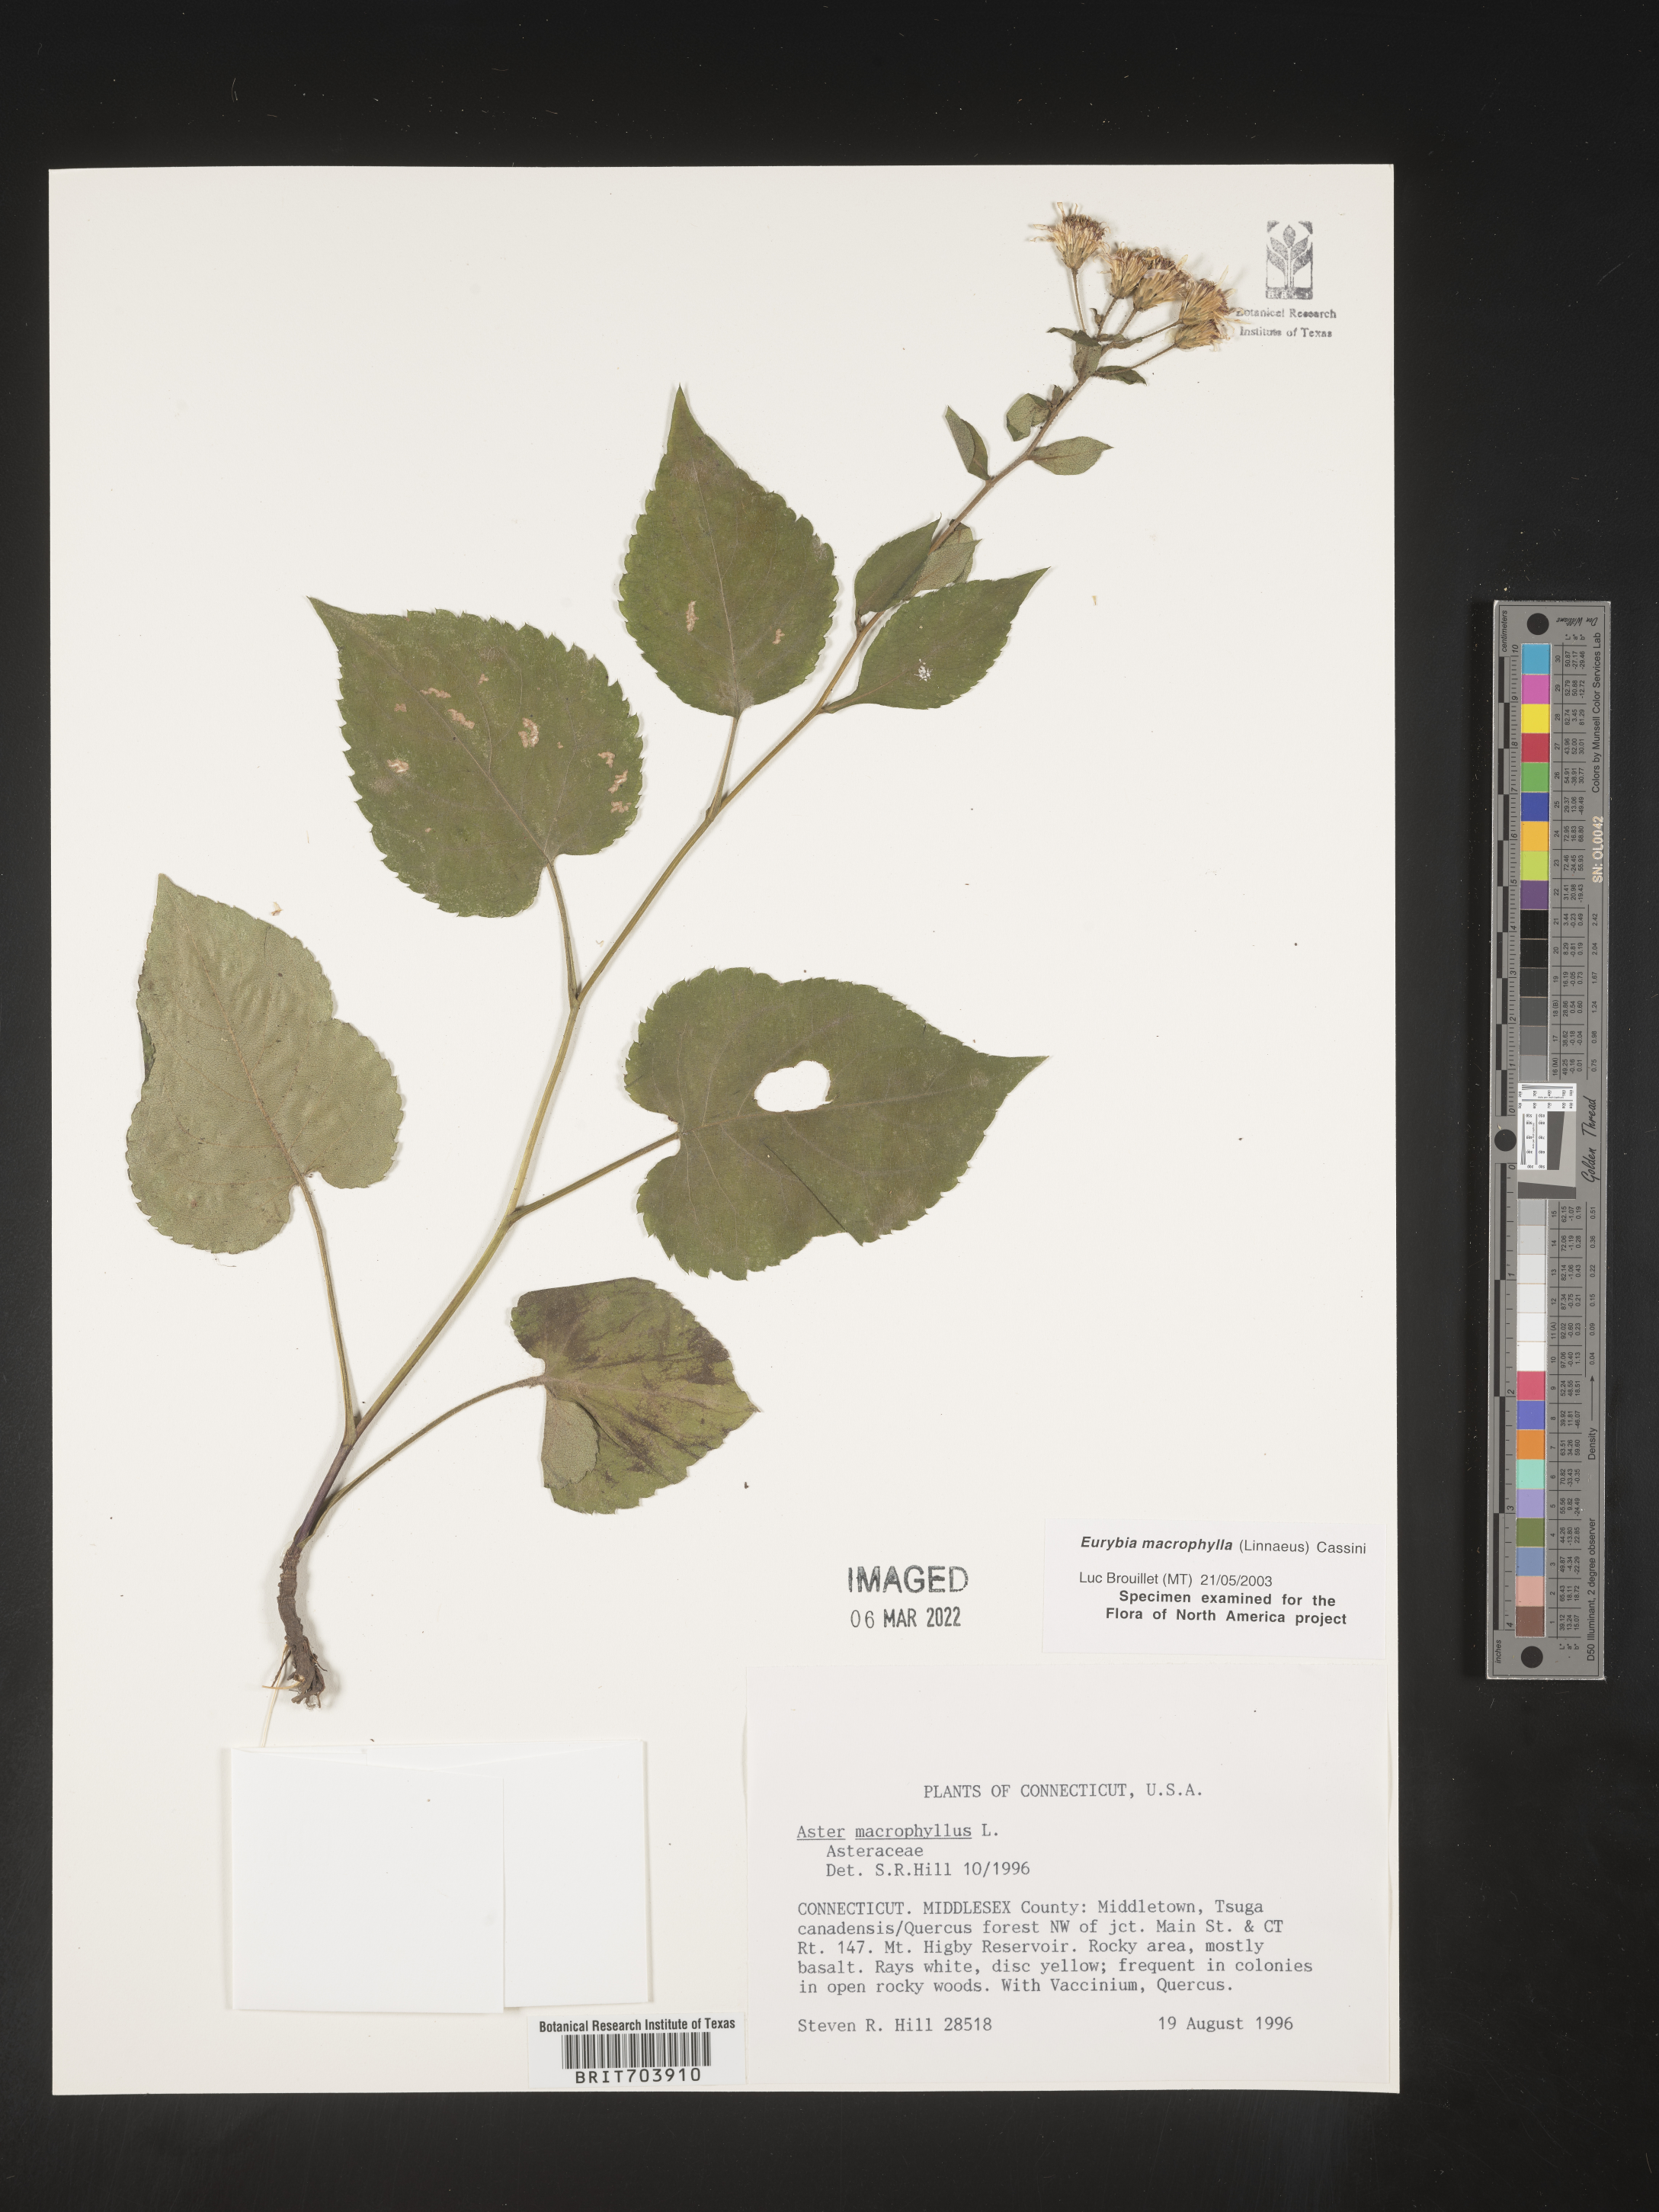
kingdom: Plantae
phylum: Tracheophyta
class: Magnoliopsida
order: Asterales
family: Asteraceae
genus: Eurybia
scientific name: Eurybia macrophylla
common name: Big-leaved aster
